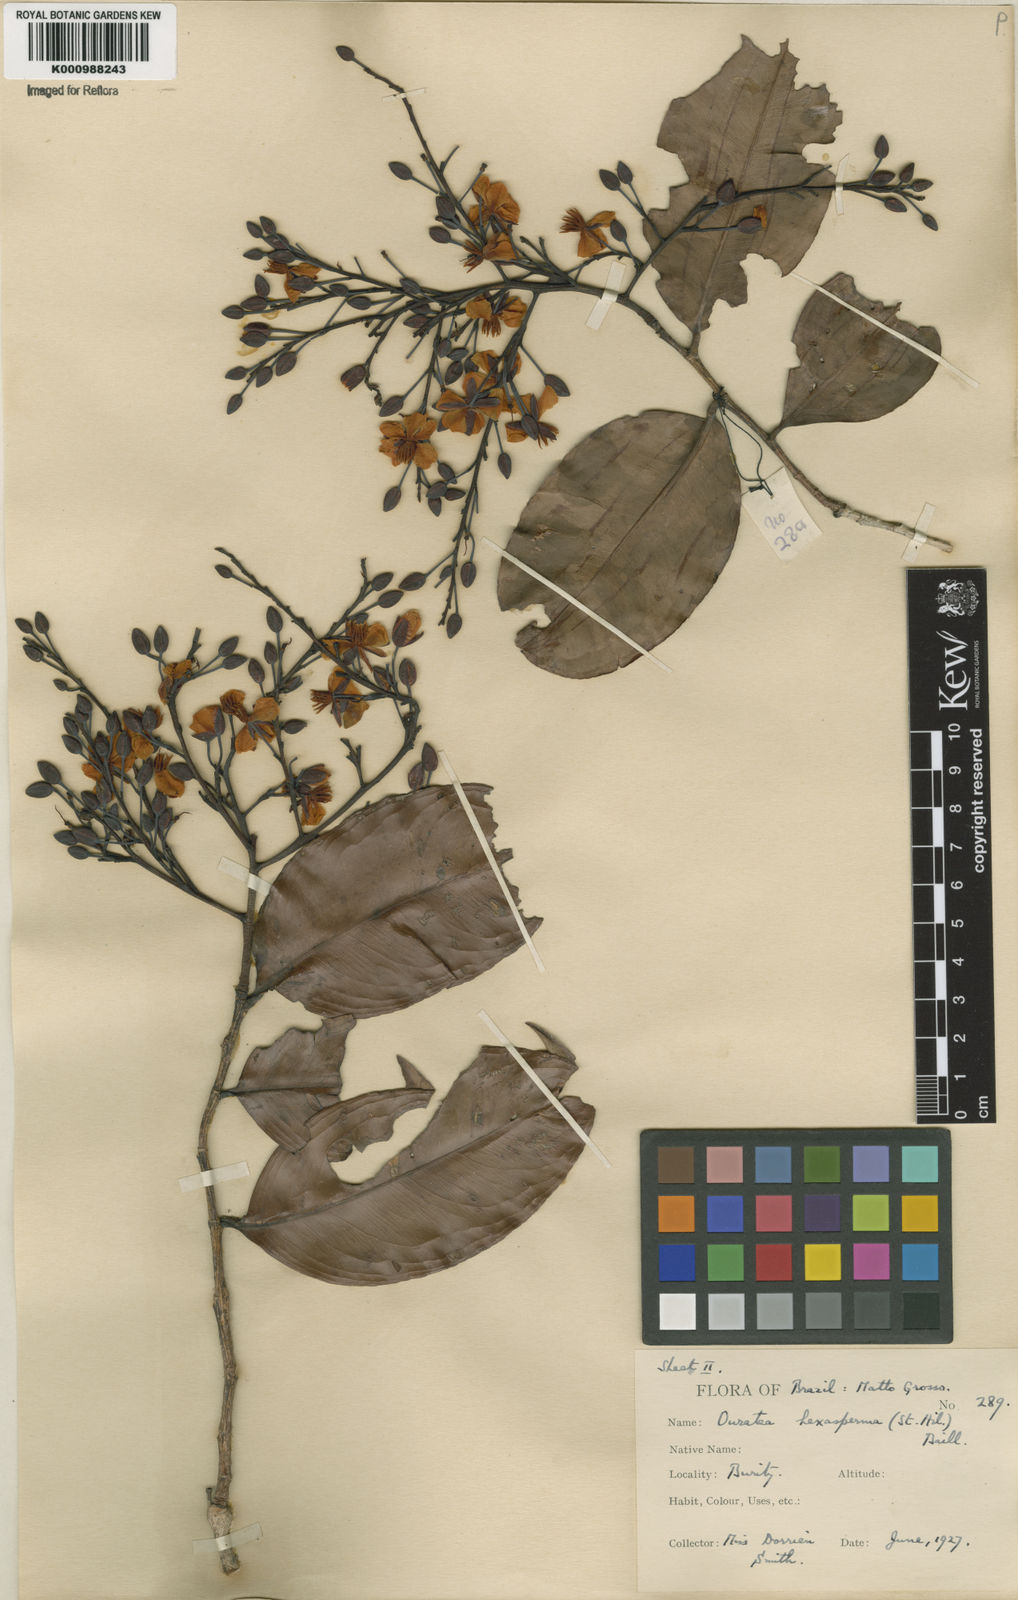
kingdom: Plantae
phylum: Tracheophyta
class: Magnoliopsida
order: Malpighiales
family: Ochnaceae
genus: Ouratea
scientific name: Ouratea hexasperma
